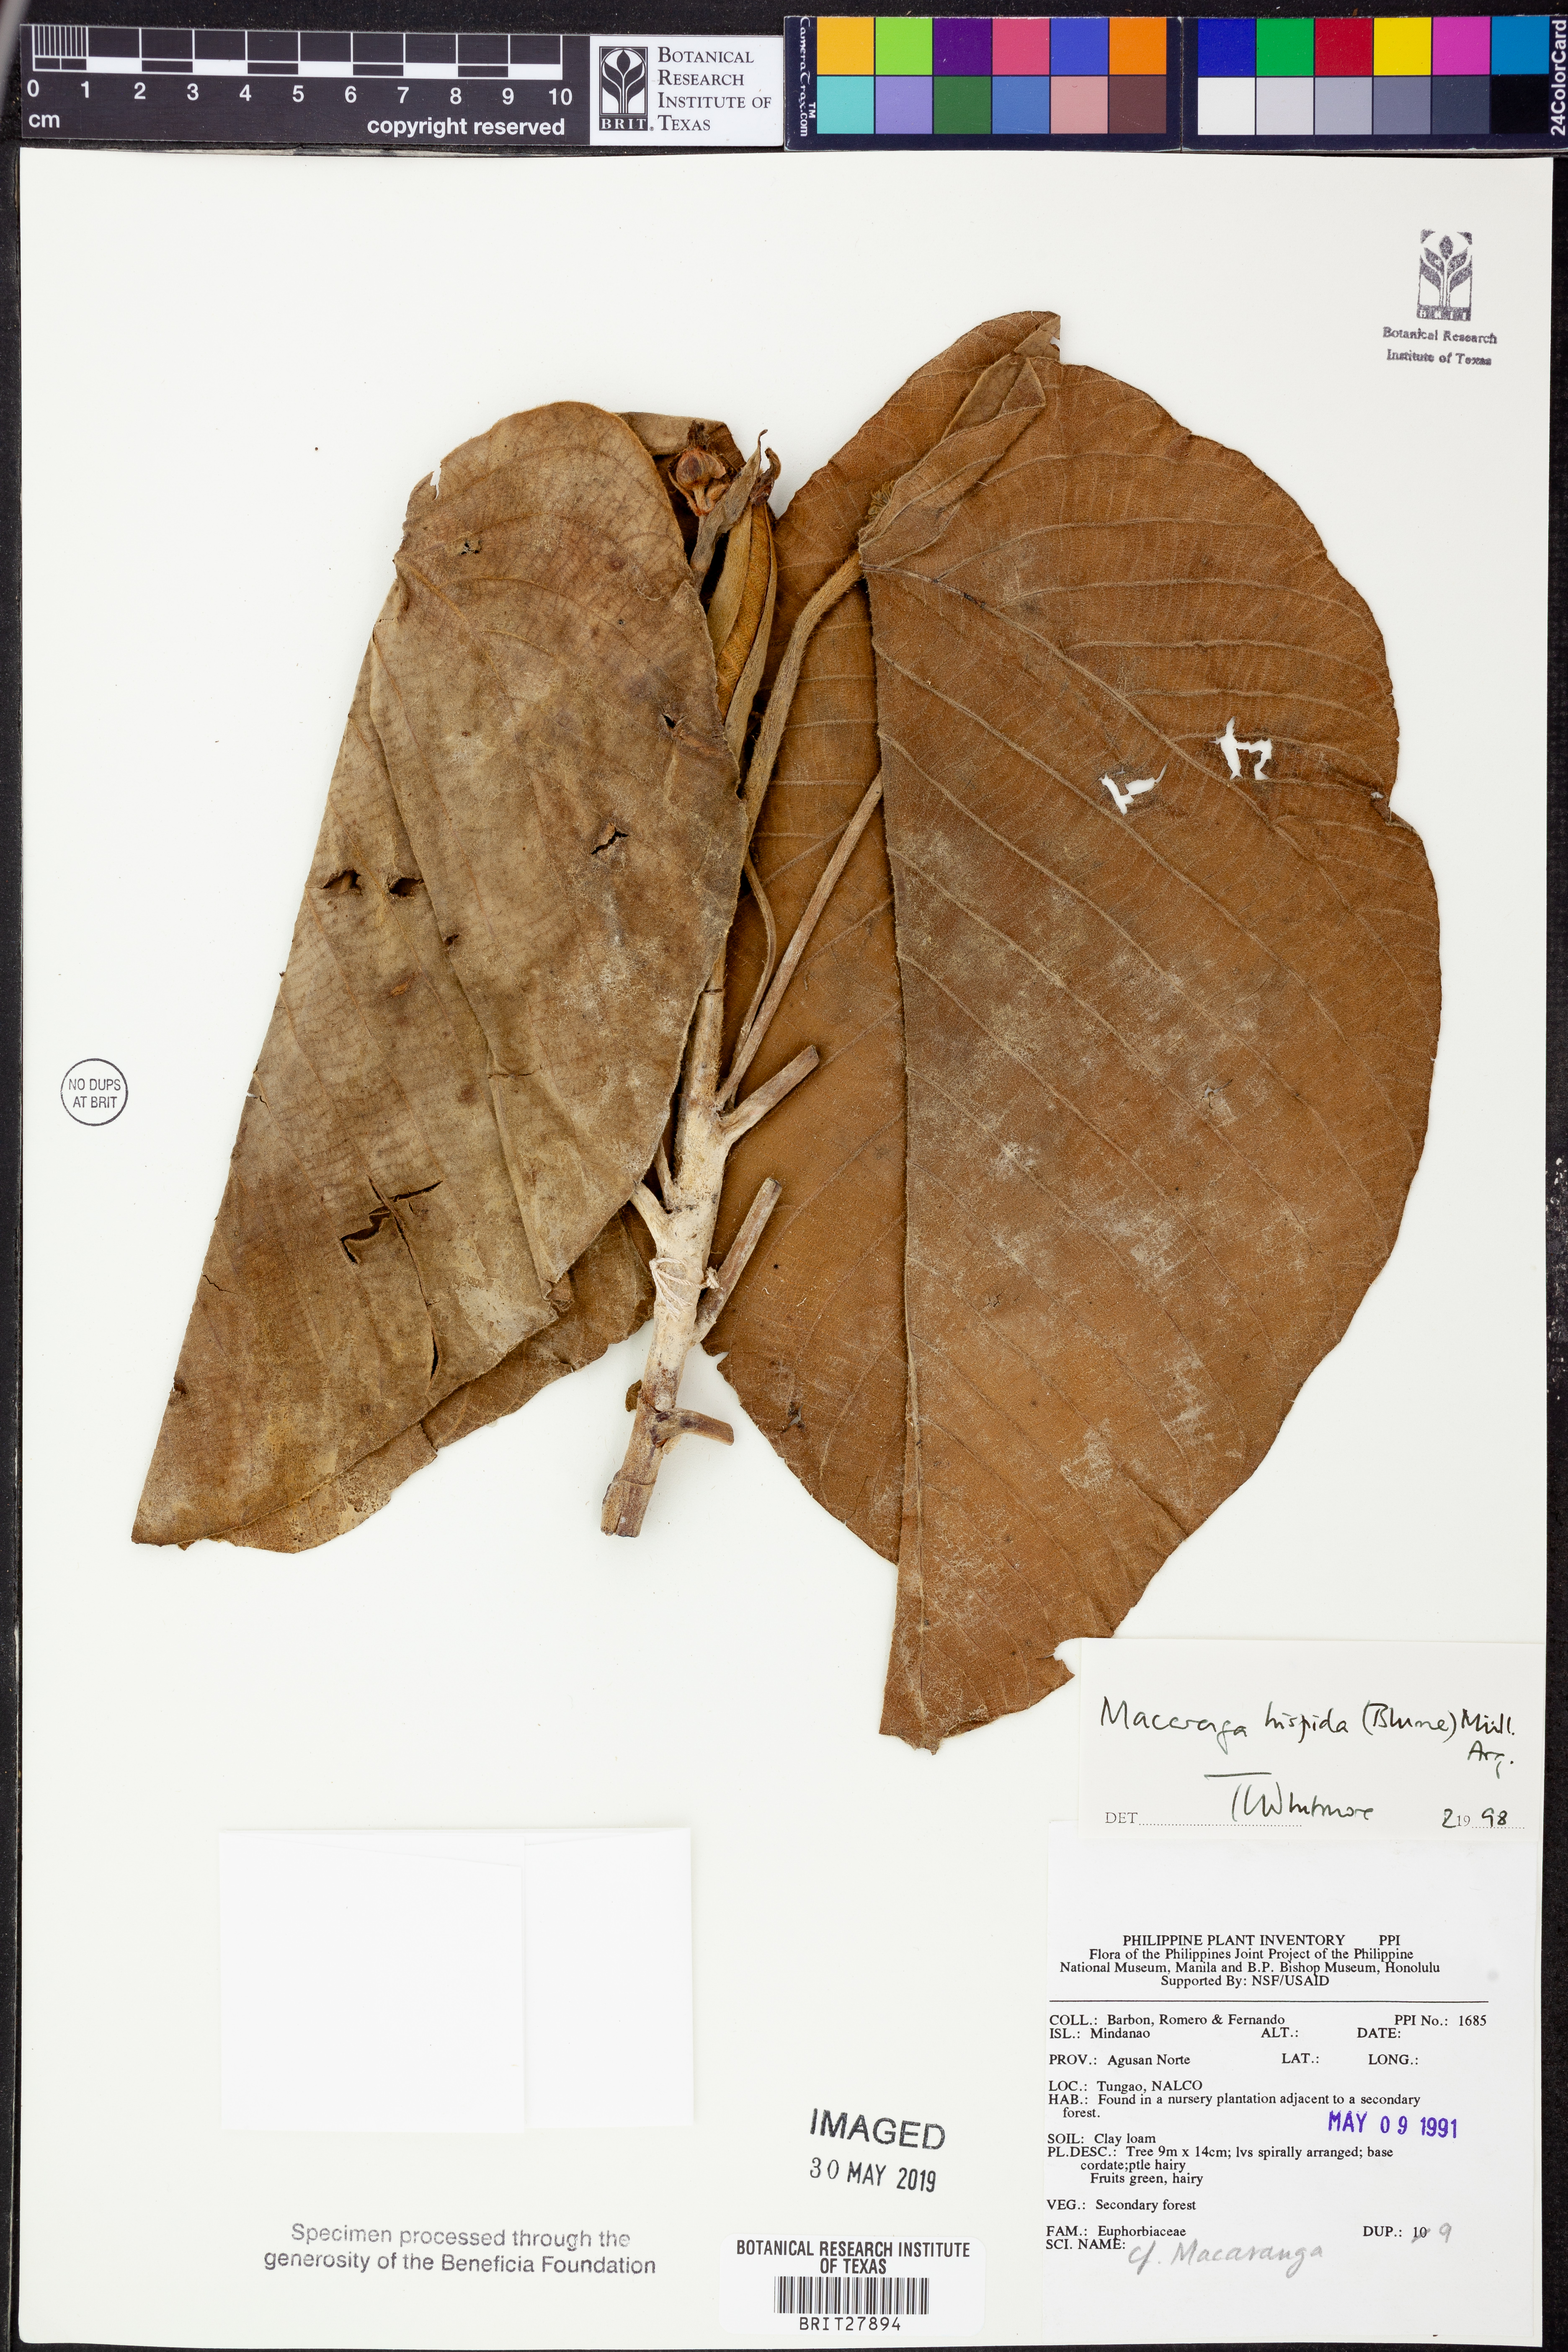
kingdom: Plantae
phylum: Tracheophyta
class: Magnoliopsida
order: Malpighiales
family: Euphorbiaceae
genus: Macaranga
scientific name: Macaranga hispida
